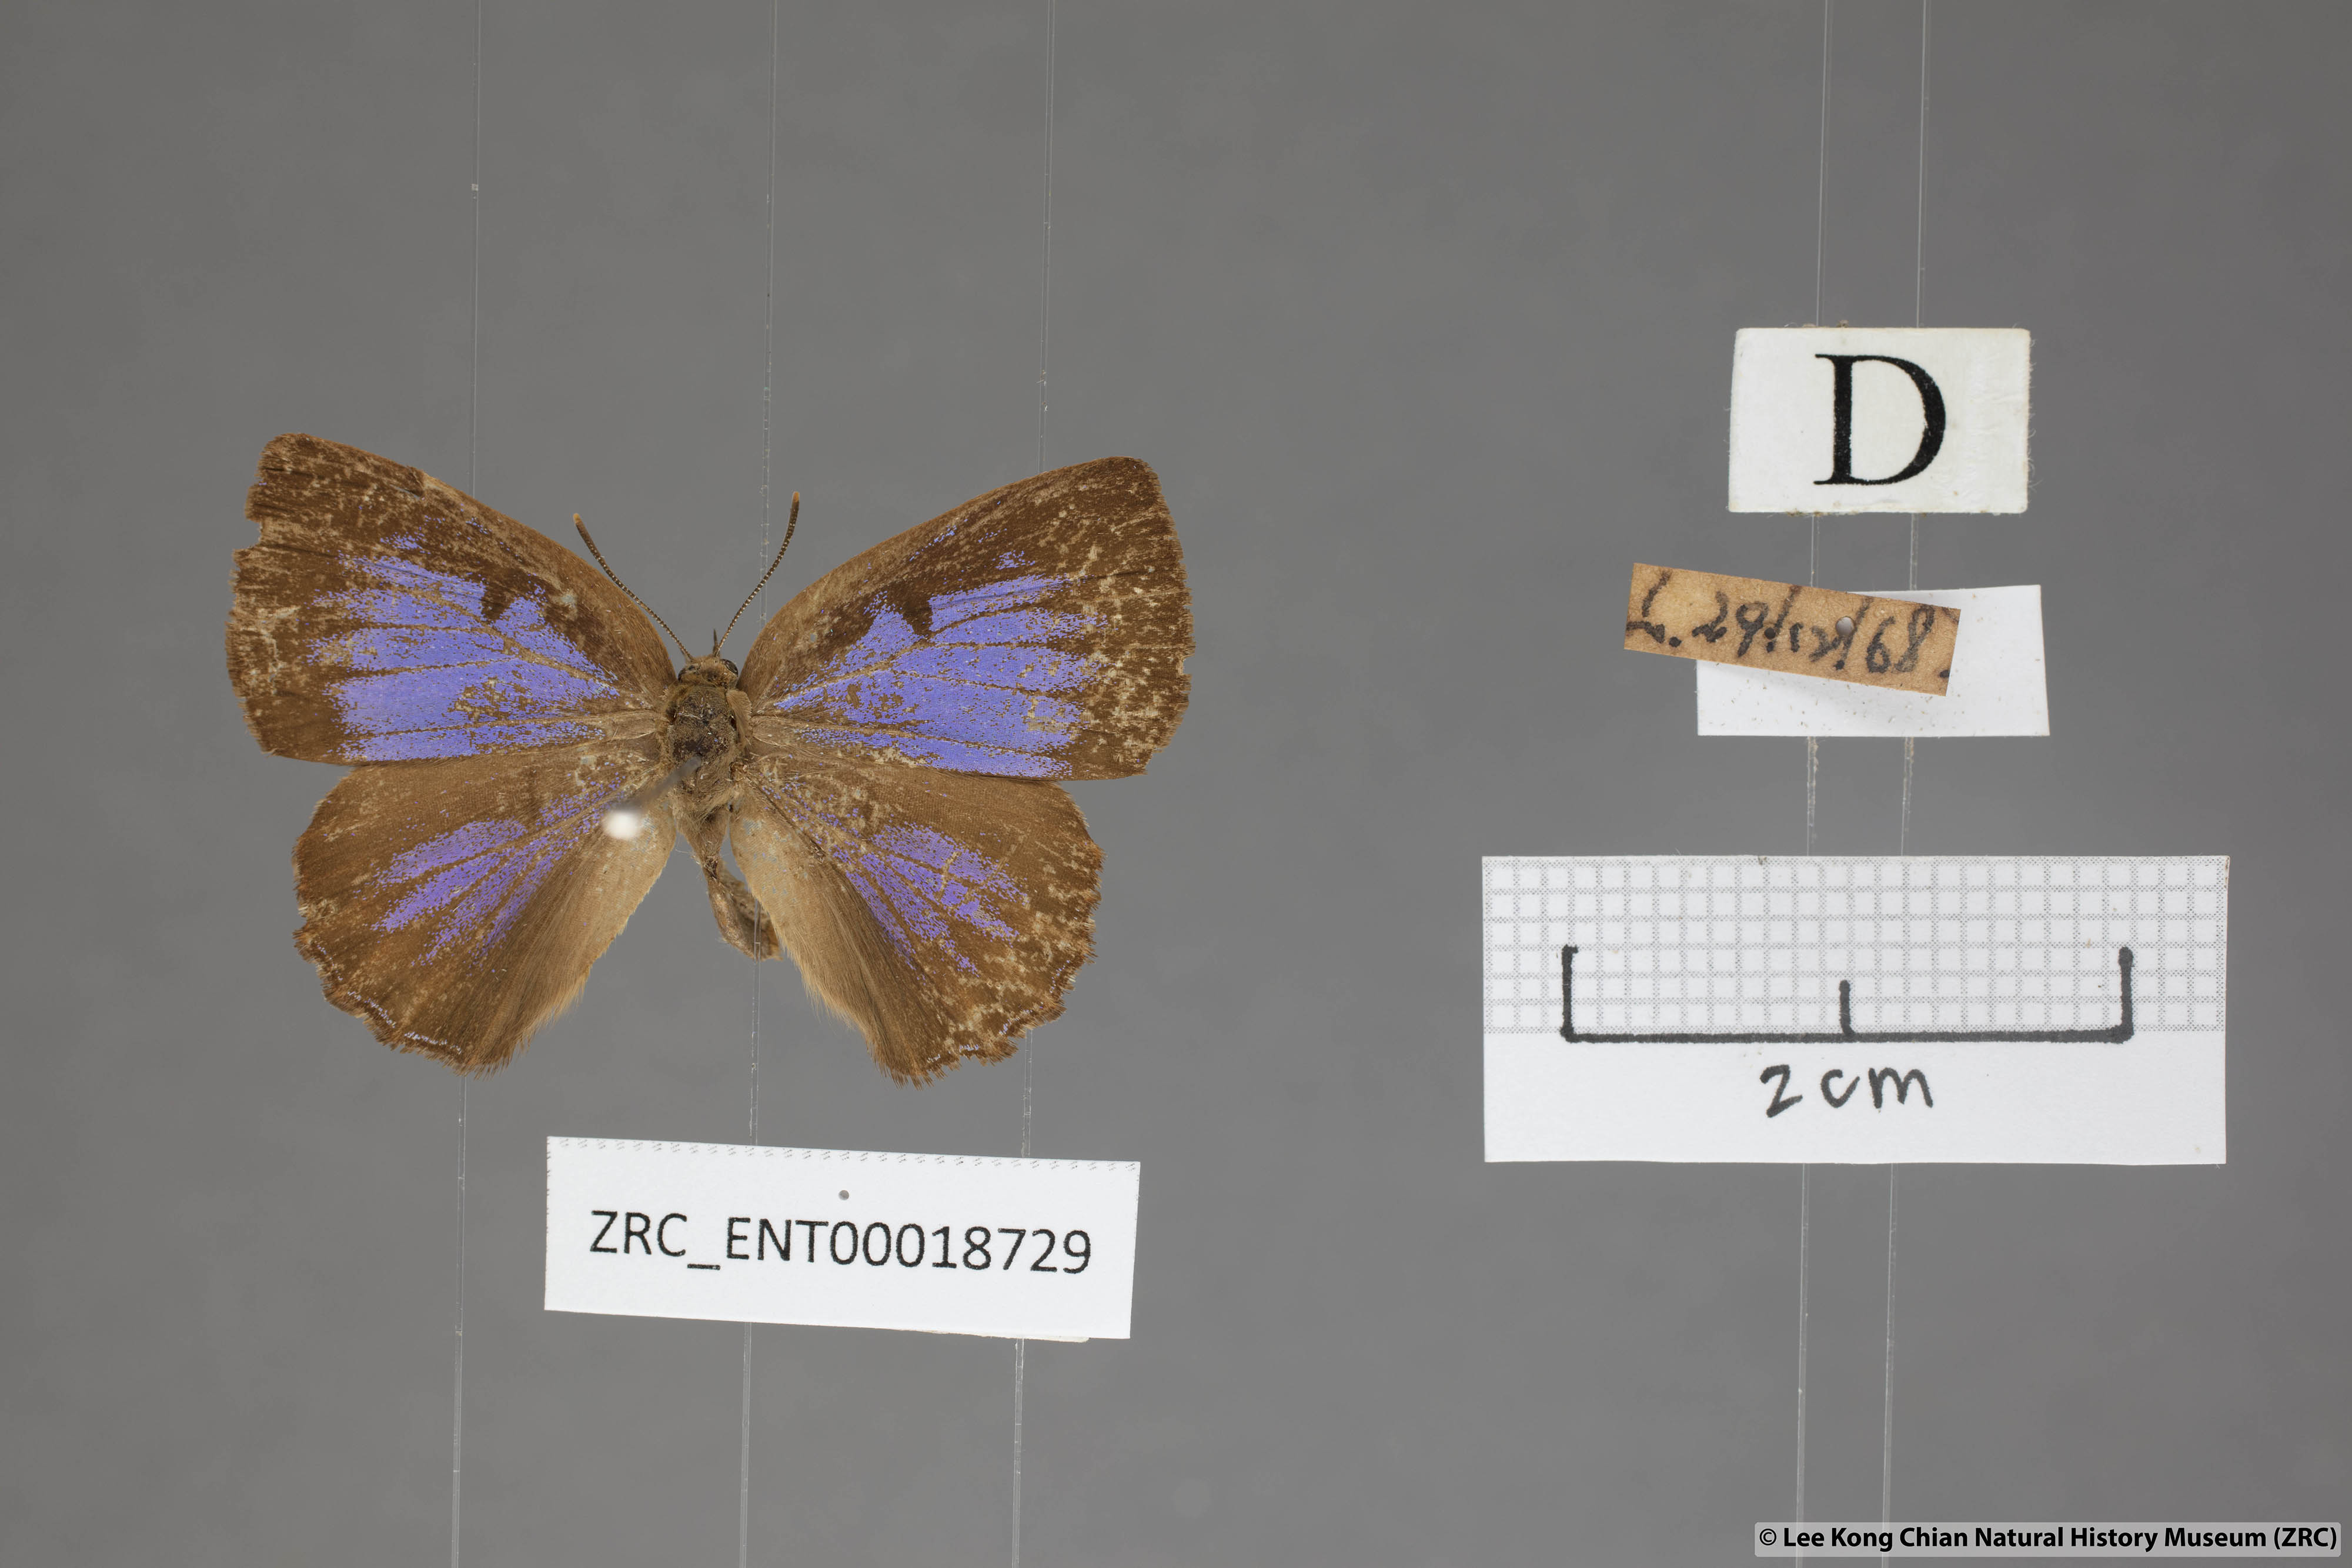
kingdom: Animalia
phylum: Arthropoda
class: Insecta
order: Lepidoptera
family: Lycaenidae
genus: Deramas
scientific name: Deramas livena
